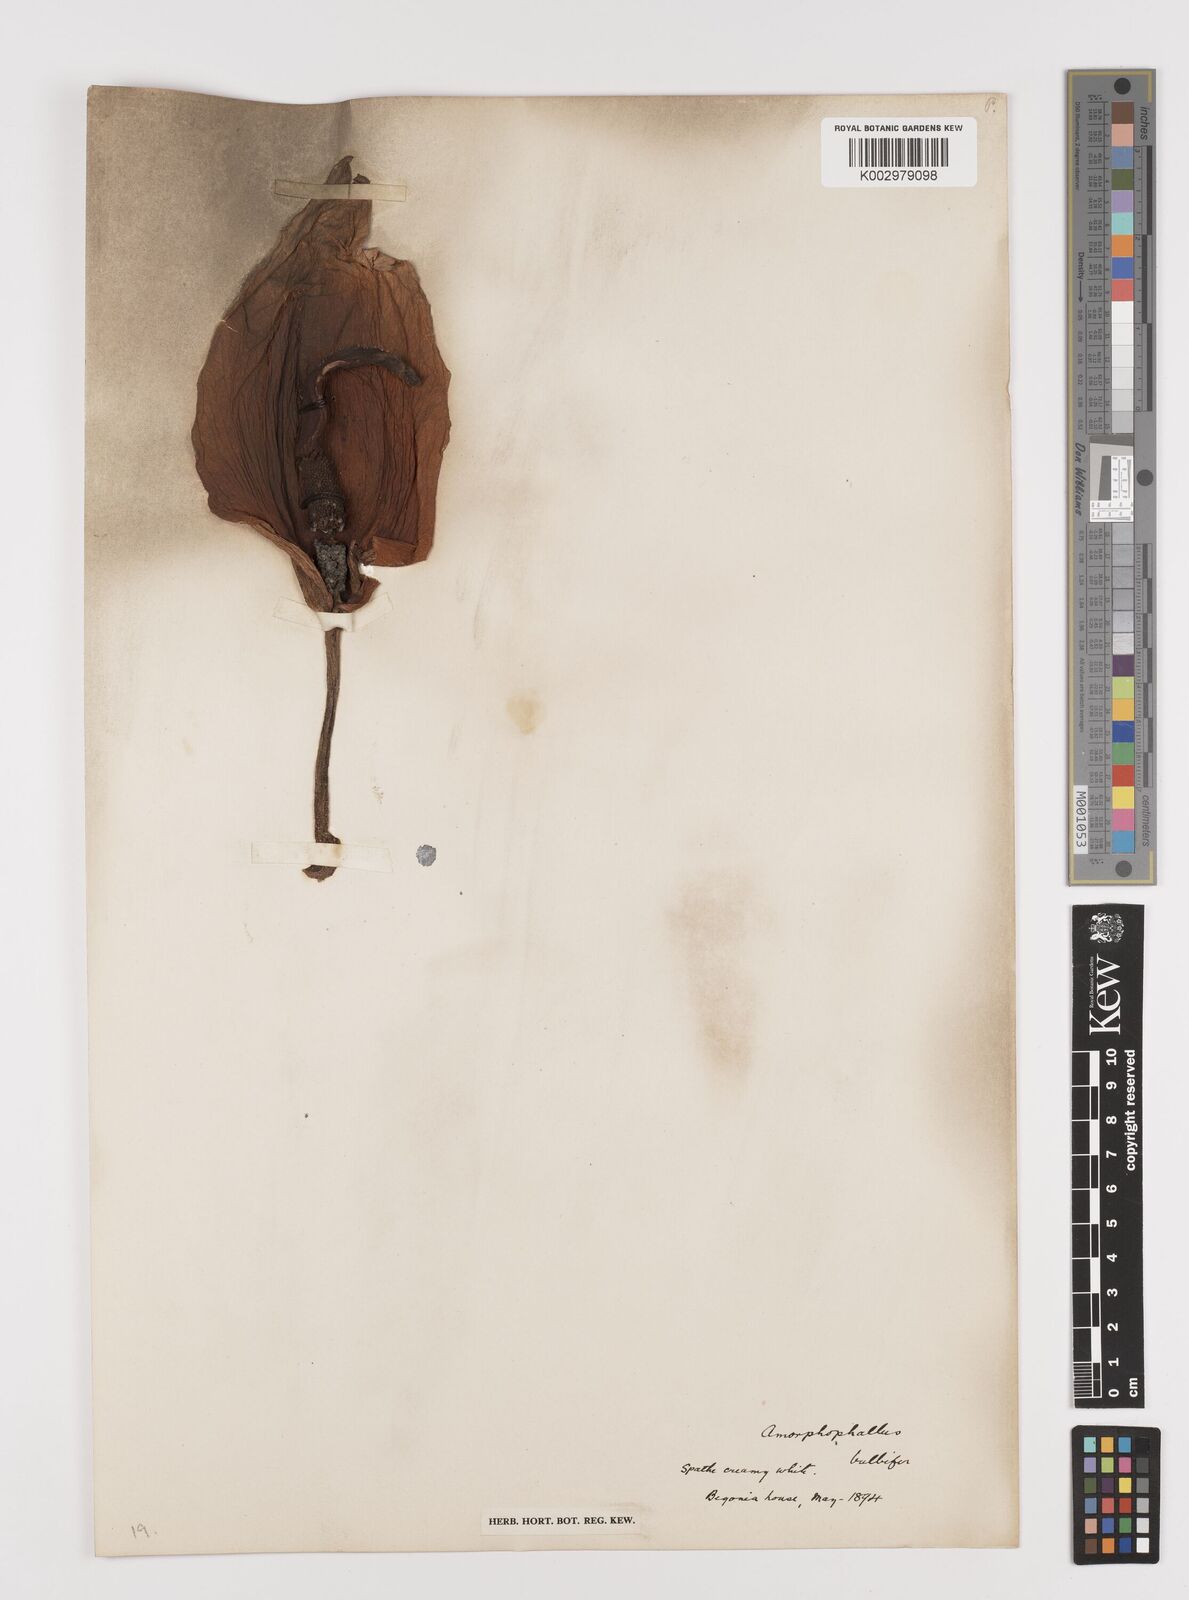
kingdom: Plantae
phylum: Tracheophyta
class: Liliopsida
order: Alismatales
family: Araceae
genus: Amorphophallus
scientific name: Amorphophallus bulbifer
